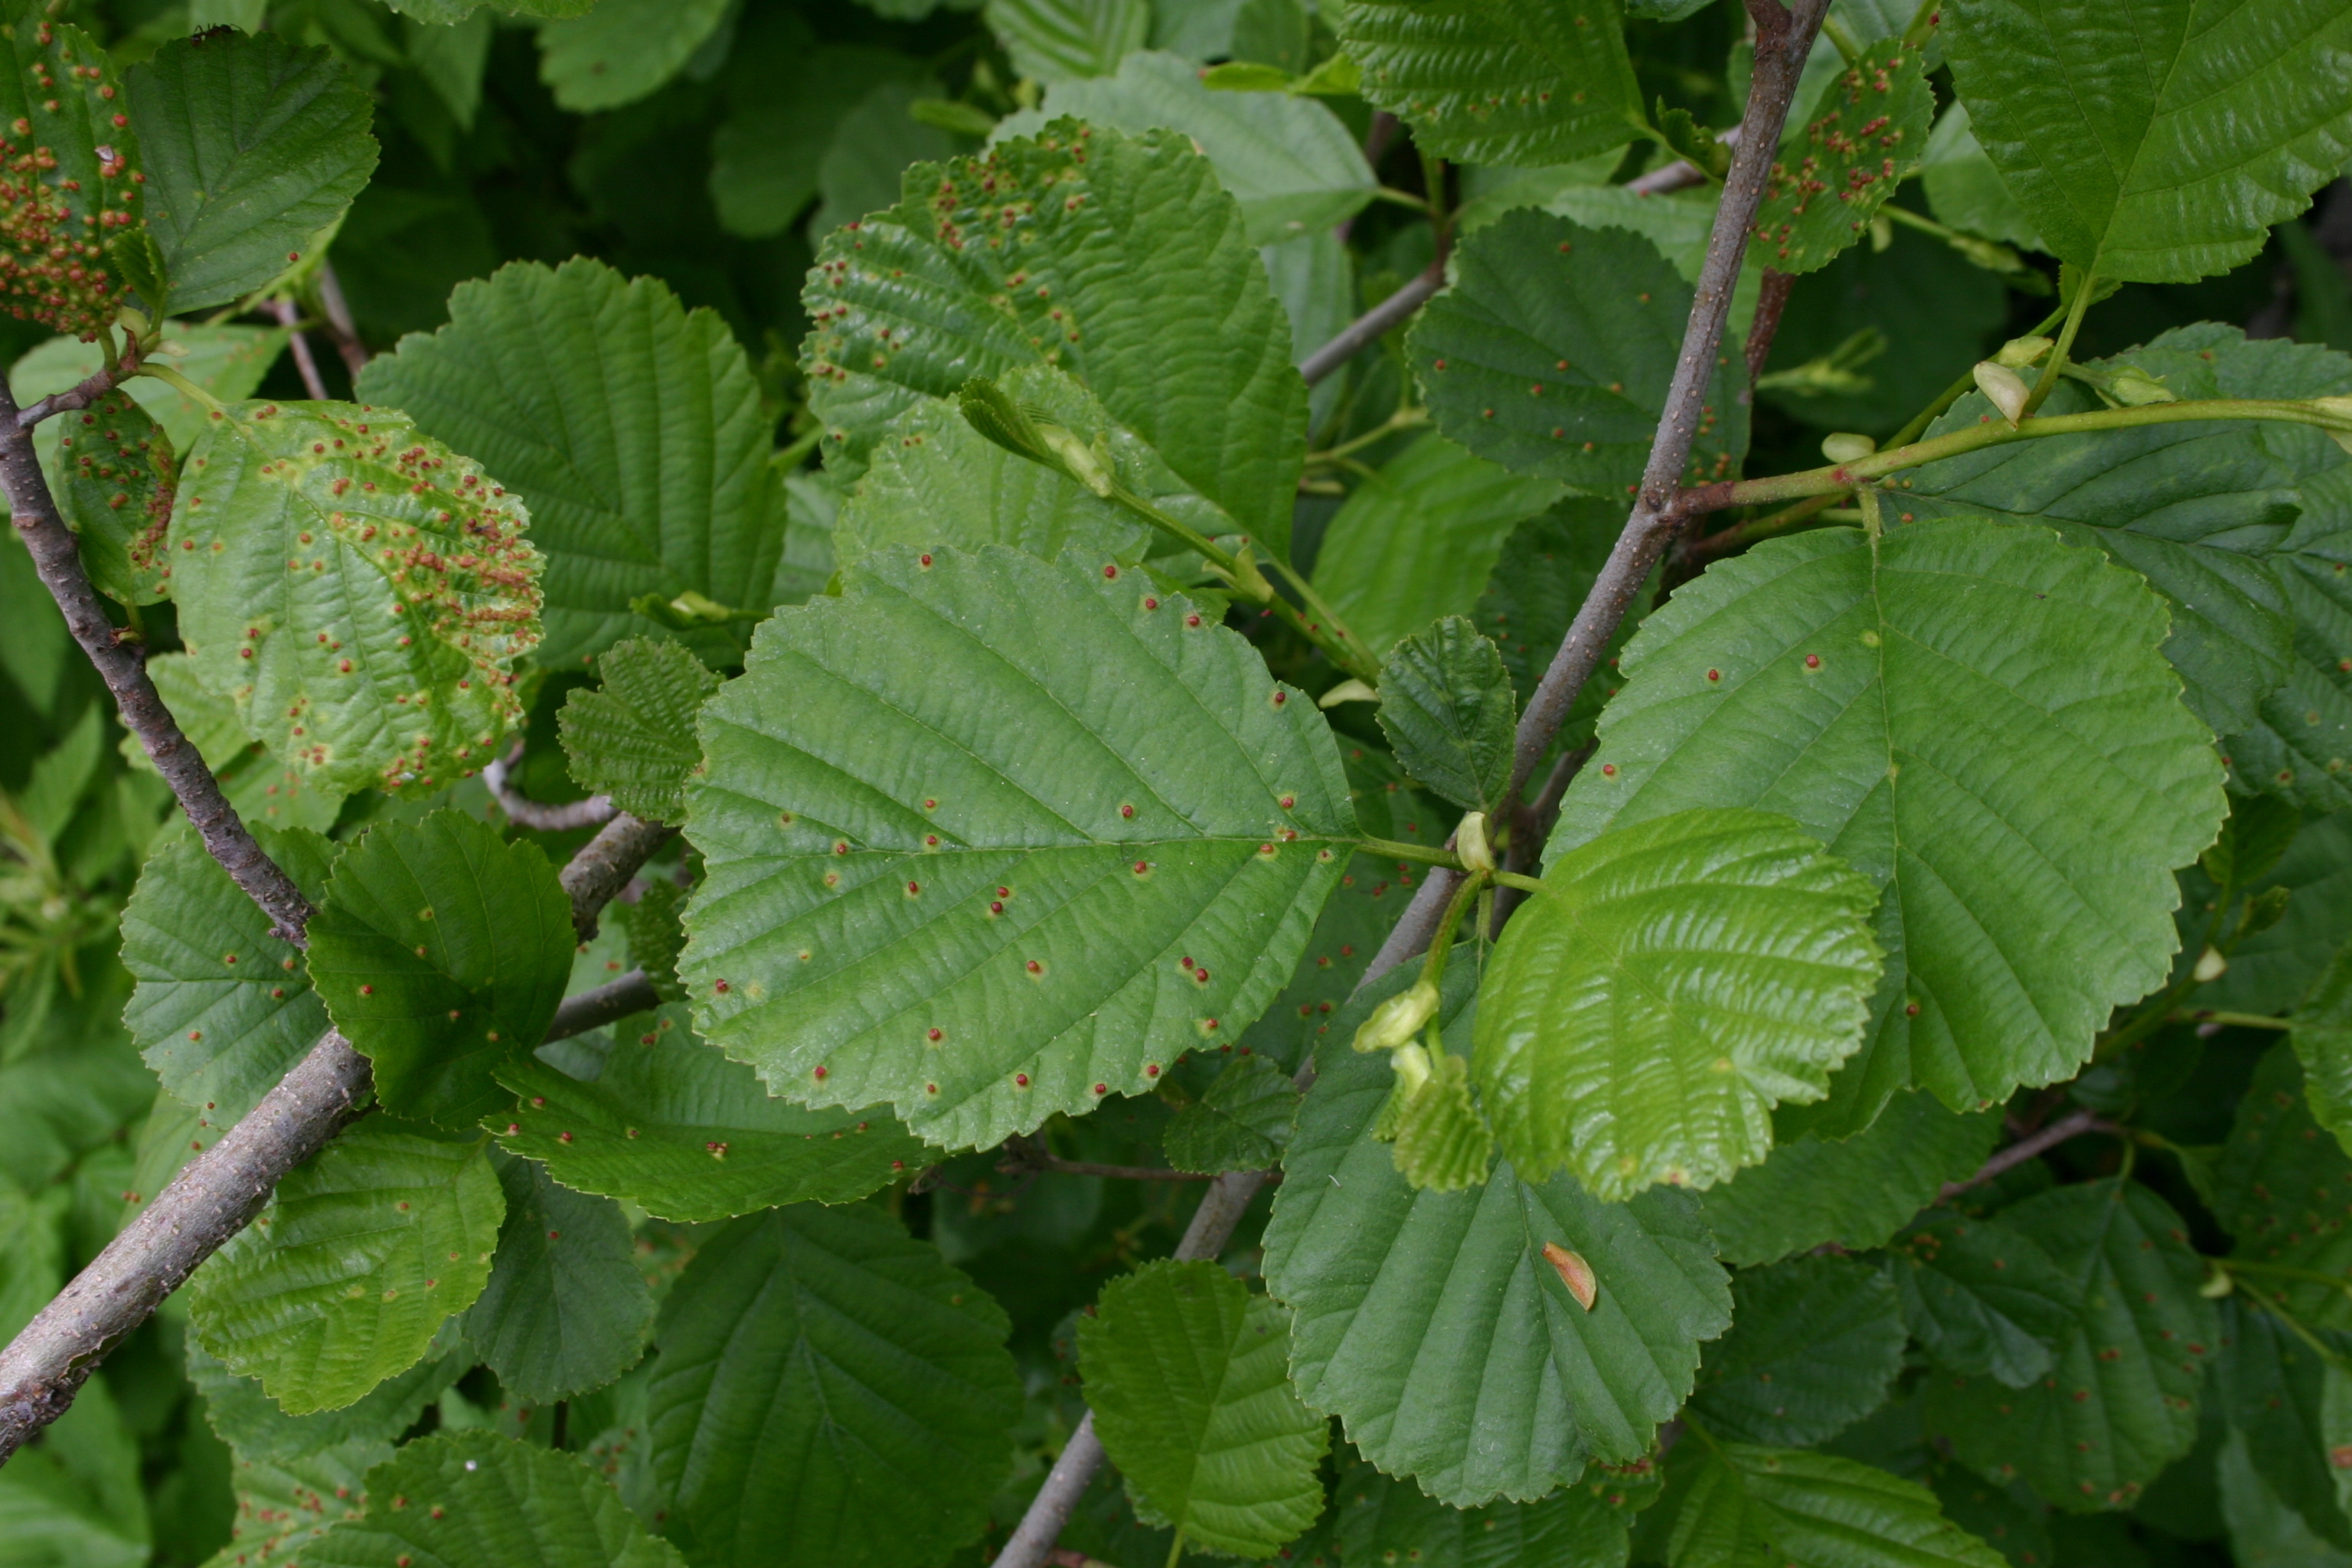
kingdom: Plantae
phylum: Tracheophyta
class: Magnoliopsida
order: Fagales
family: Betulaceae
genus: Alnus
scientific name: Alnus glutinosa
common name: Black alder
